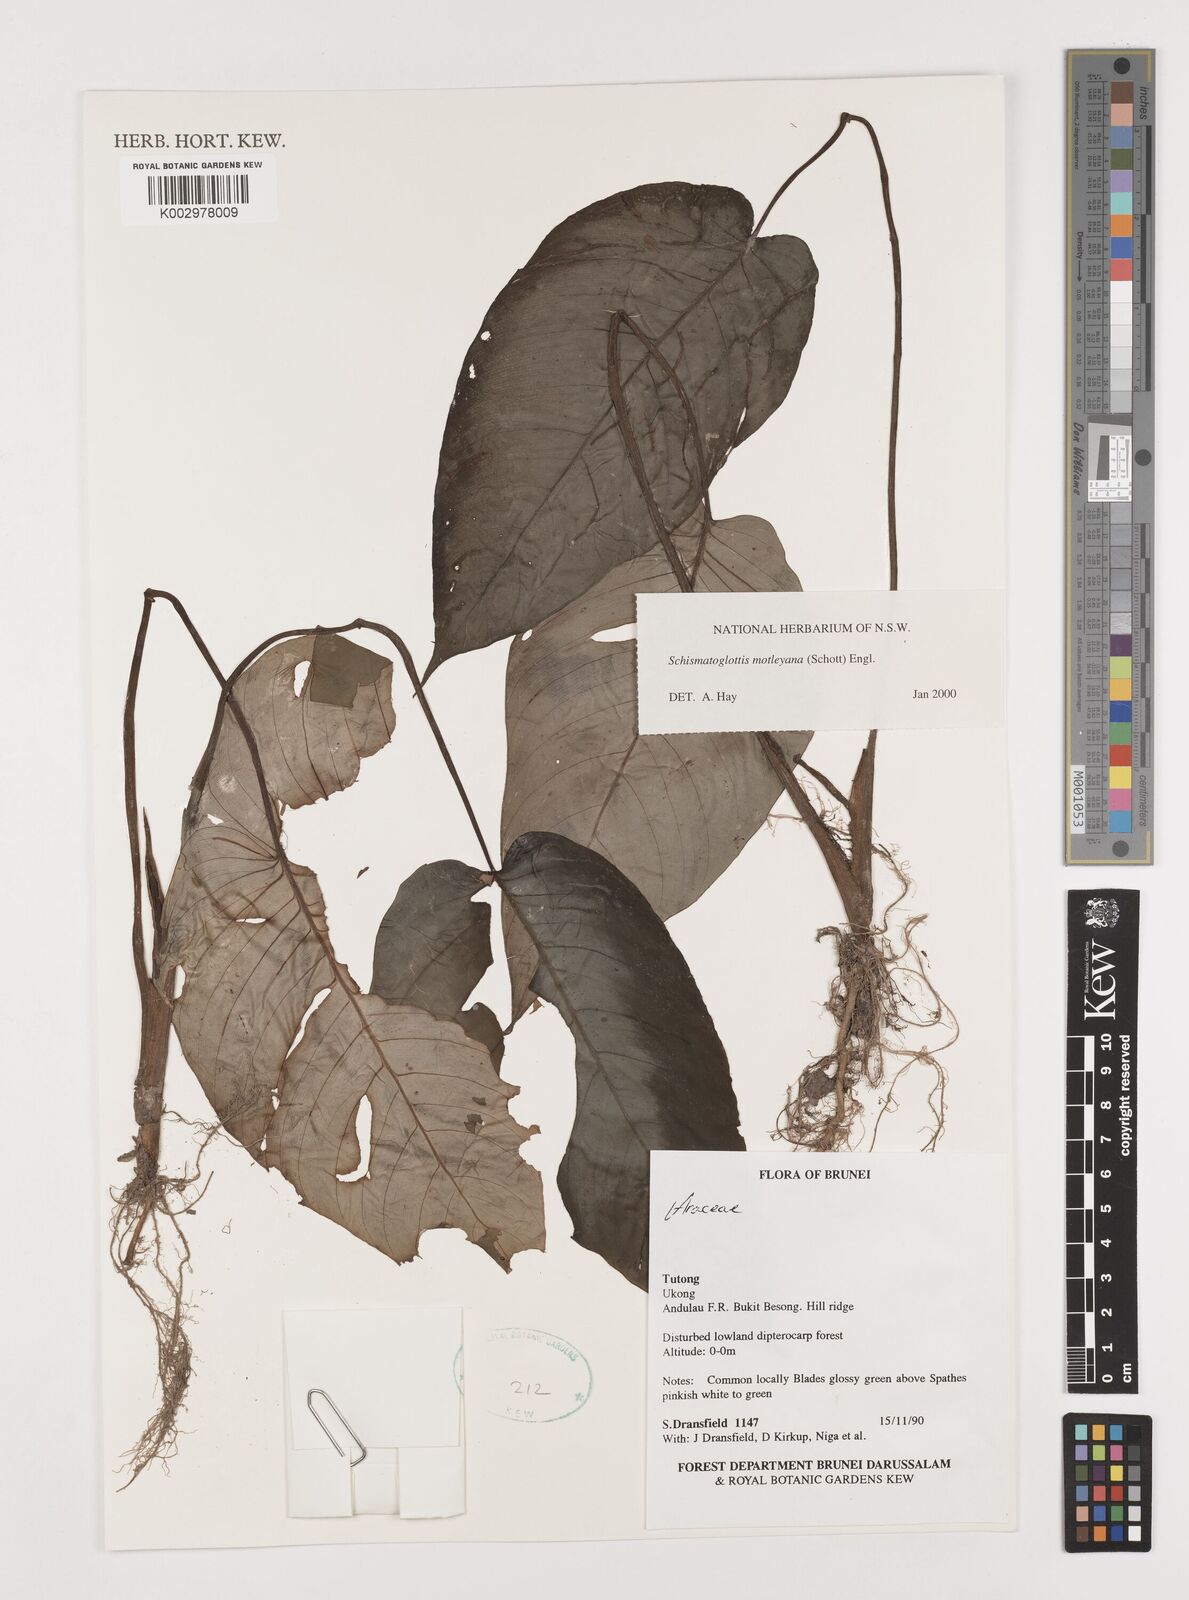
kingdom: Plantae
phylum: Tracheophyta
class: Liliopsida
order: Alismatales
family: Araceae
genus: Schismatoglottis
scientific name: Schismatoglottis motleyana
